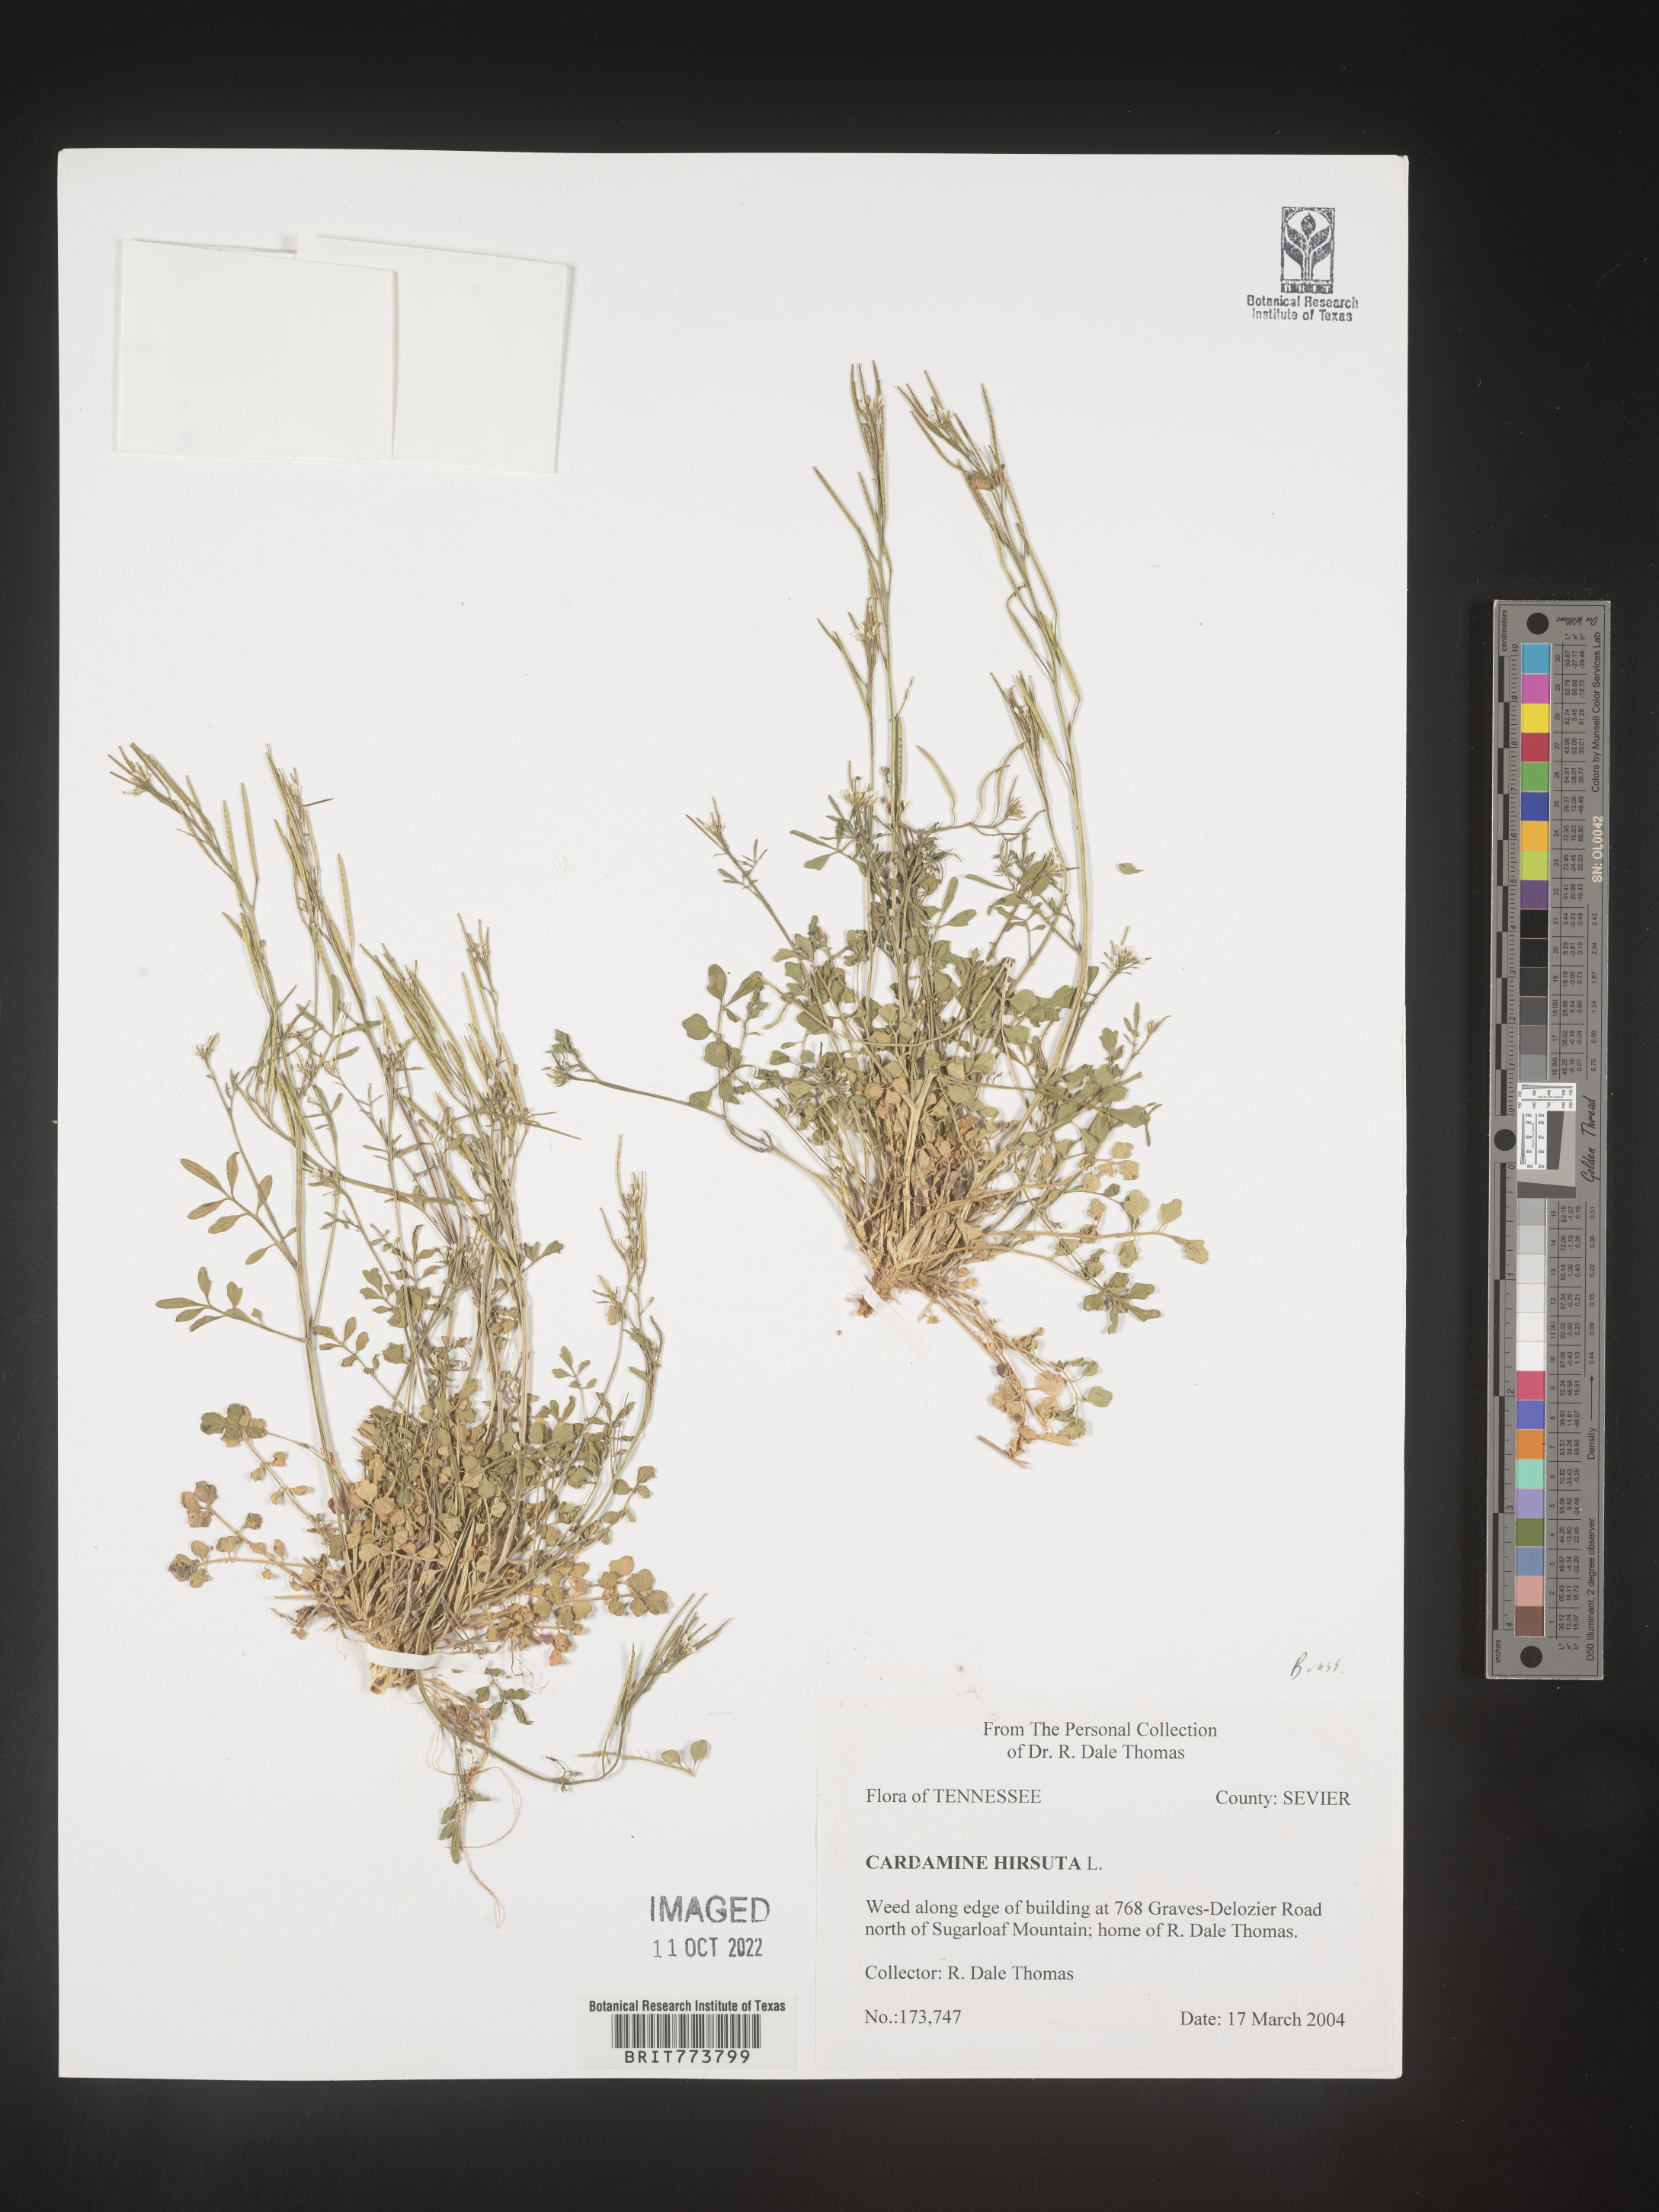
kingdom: Plantae
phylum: Tracheophyta
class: Magnoliopsida
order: Brassicales
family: Brassicaceae
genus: Cardamine
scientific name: Cardamine hirsuta
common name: Hairy bittercress
